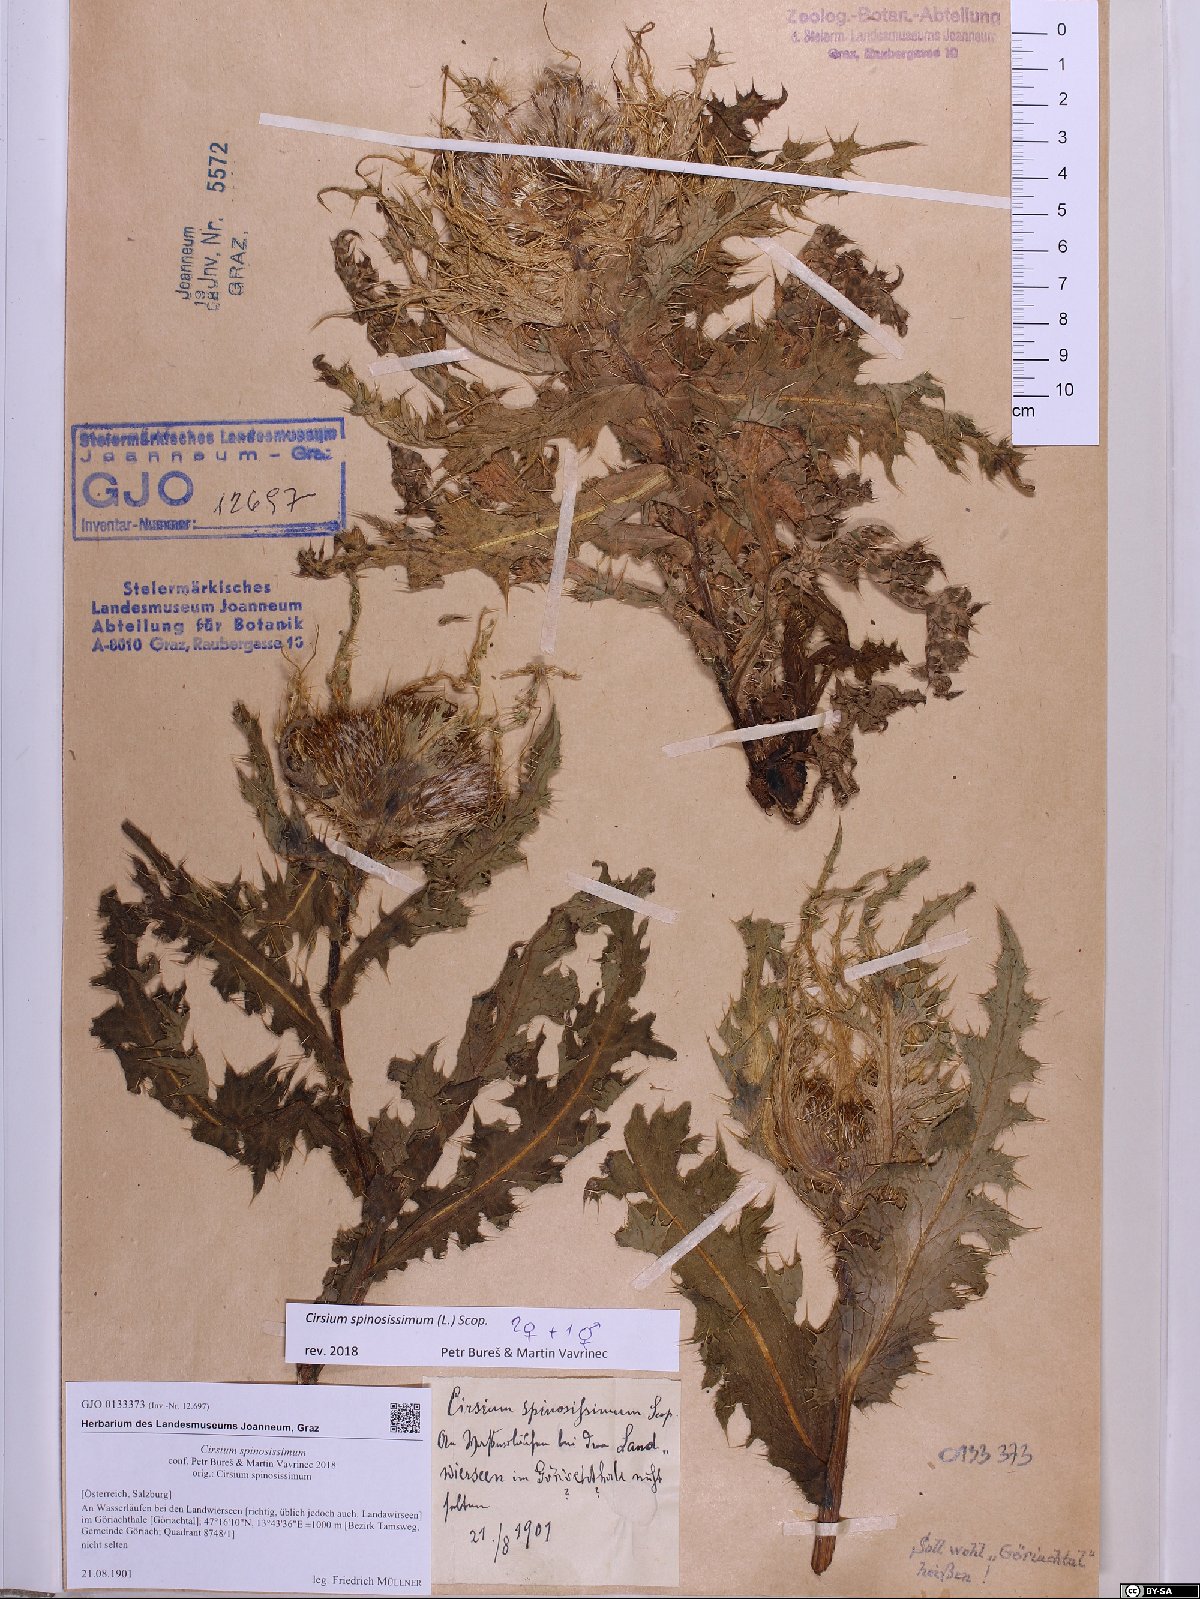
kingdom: Plantae
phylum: Tracheophyta
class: Magnoliopsida
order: Asterales
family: Asteraceae
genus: Cirsium
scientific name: Cirsium spinosissimum
